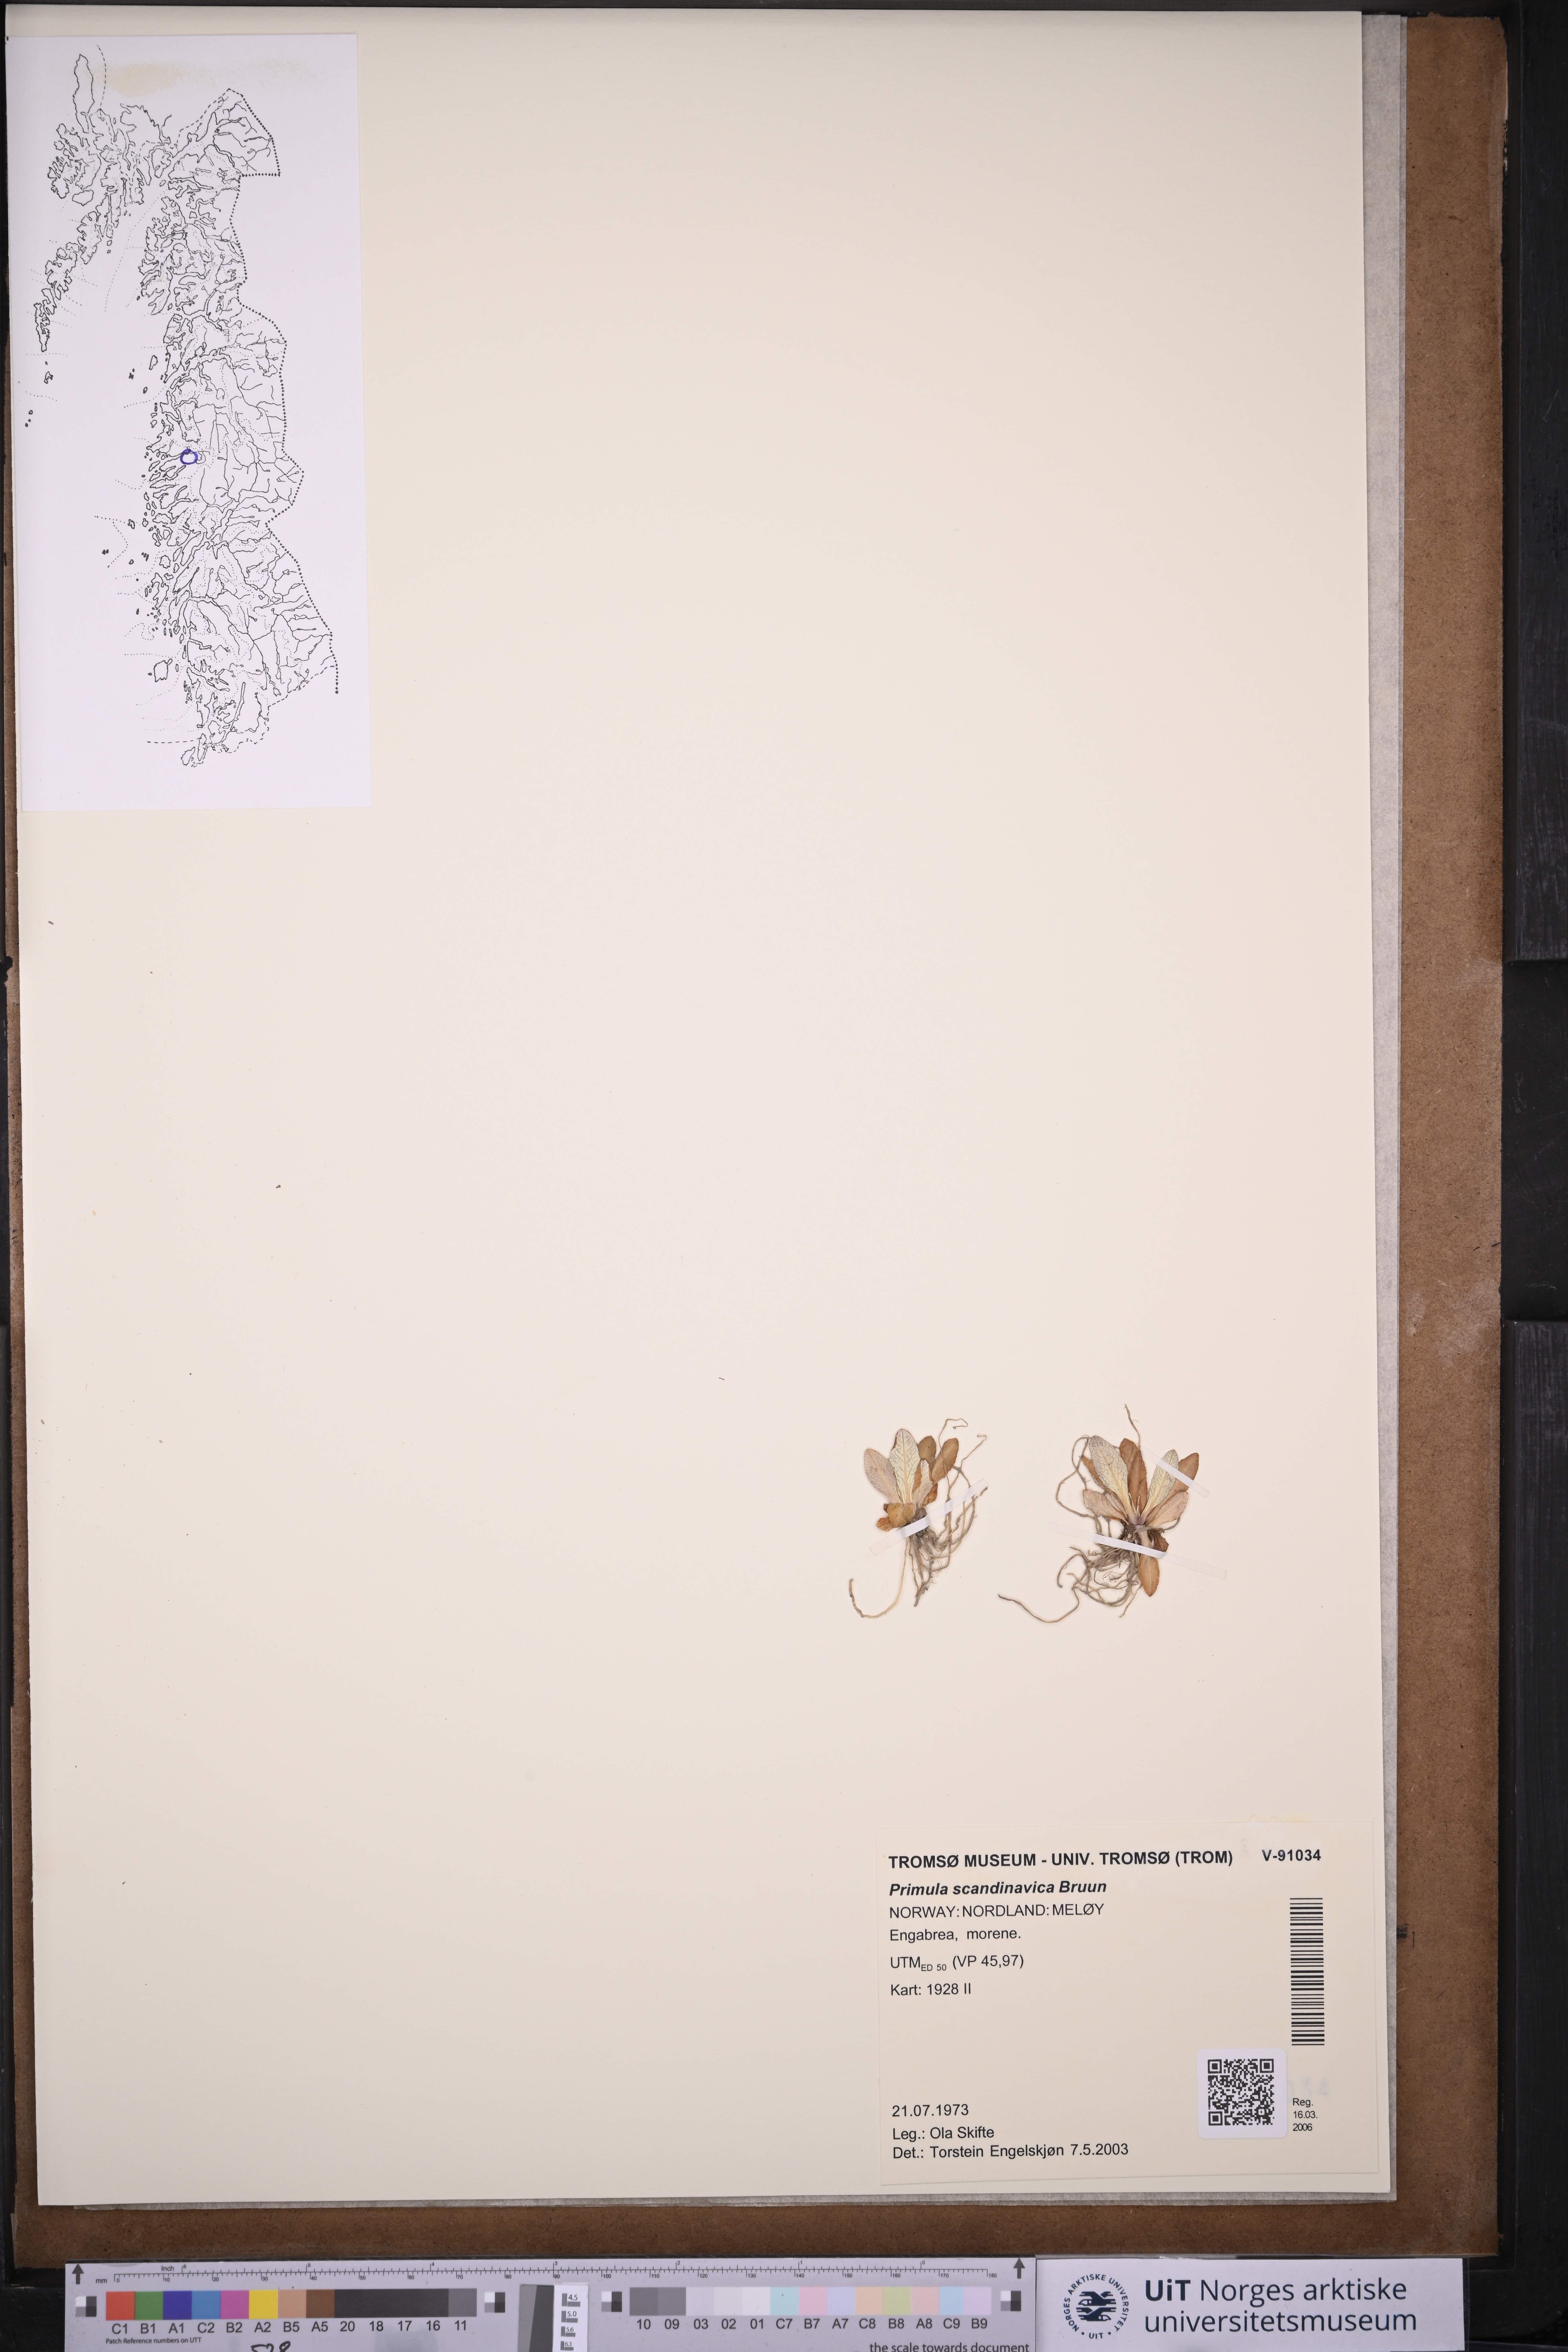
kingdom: Plantae
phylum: Tracheophyta
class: Magnoliopsida
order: Ericales
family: Primulaceae
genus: Primula
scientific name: Primula scandinavica
